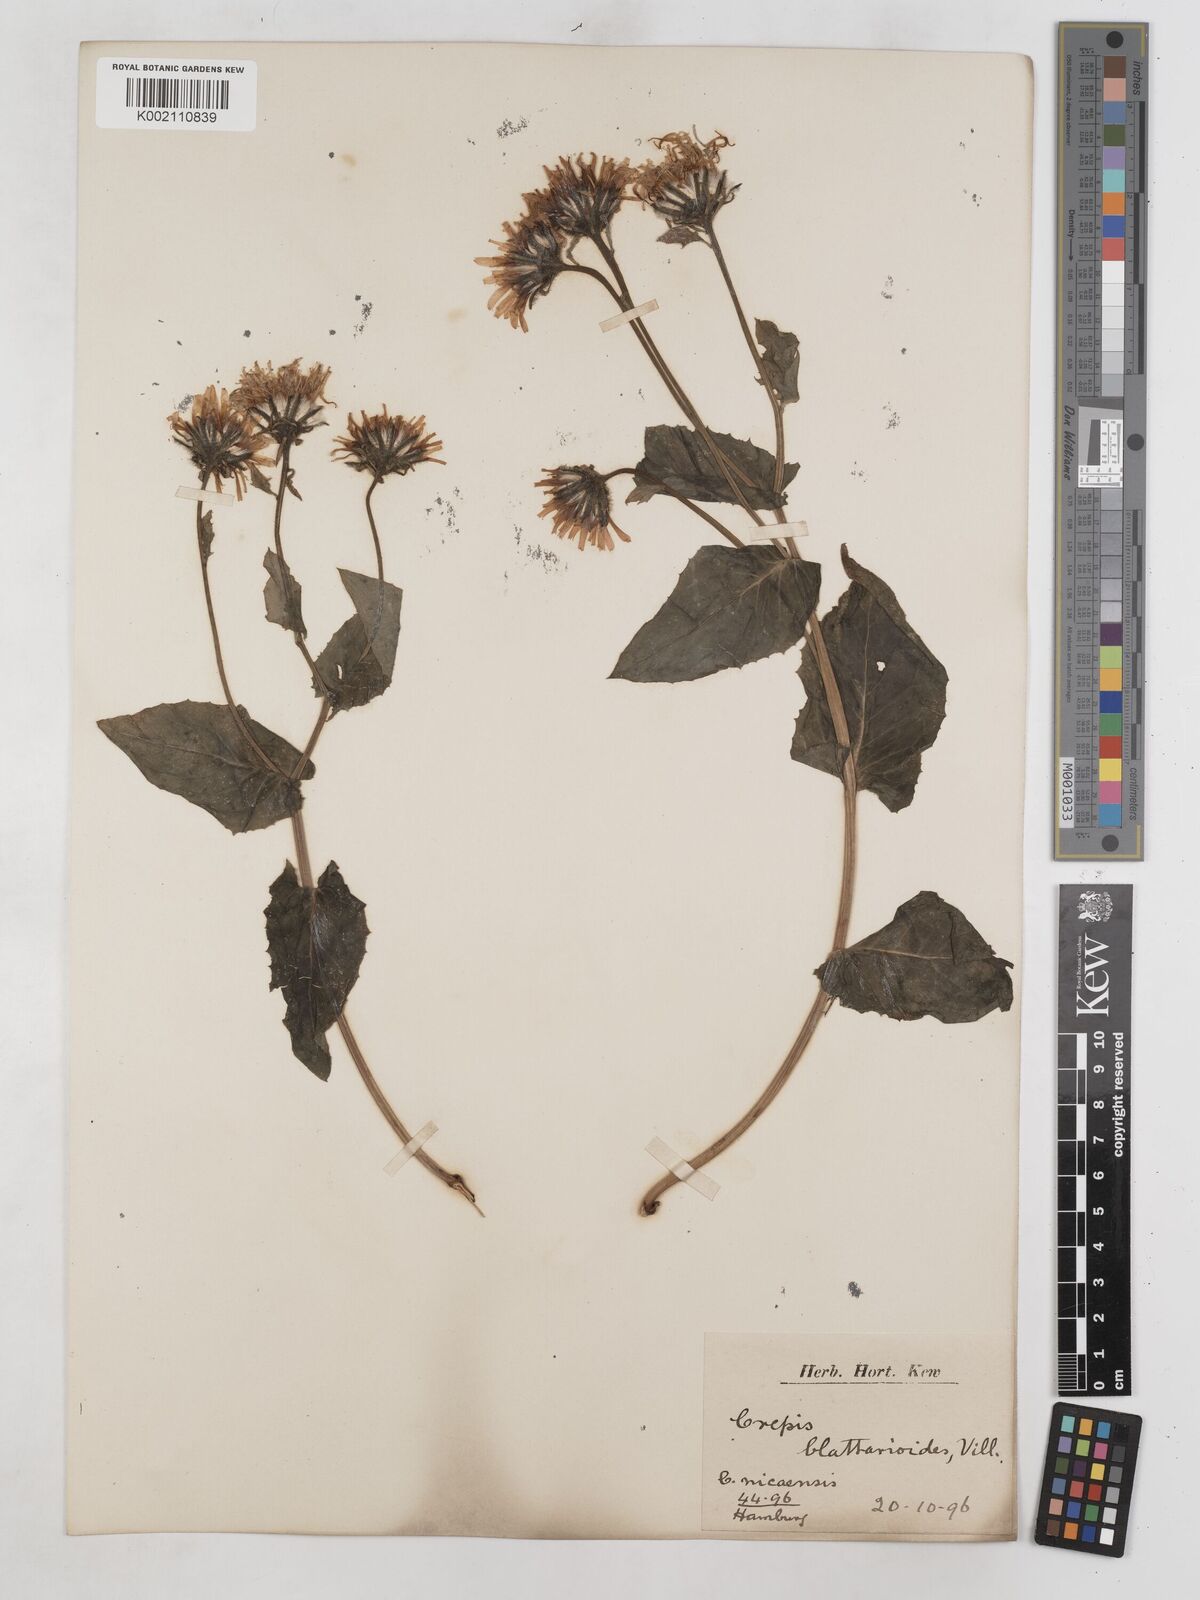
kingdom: Plantae
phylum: Tracheophyta
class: Magnoliopsida
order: Asterales
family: Asteraceae
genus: Crepis
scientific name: Crepis blattarioides
